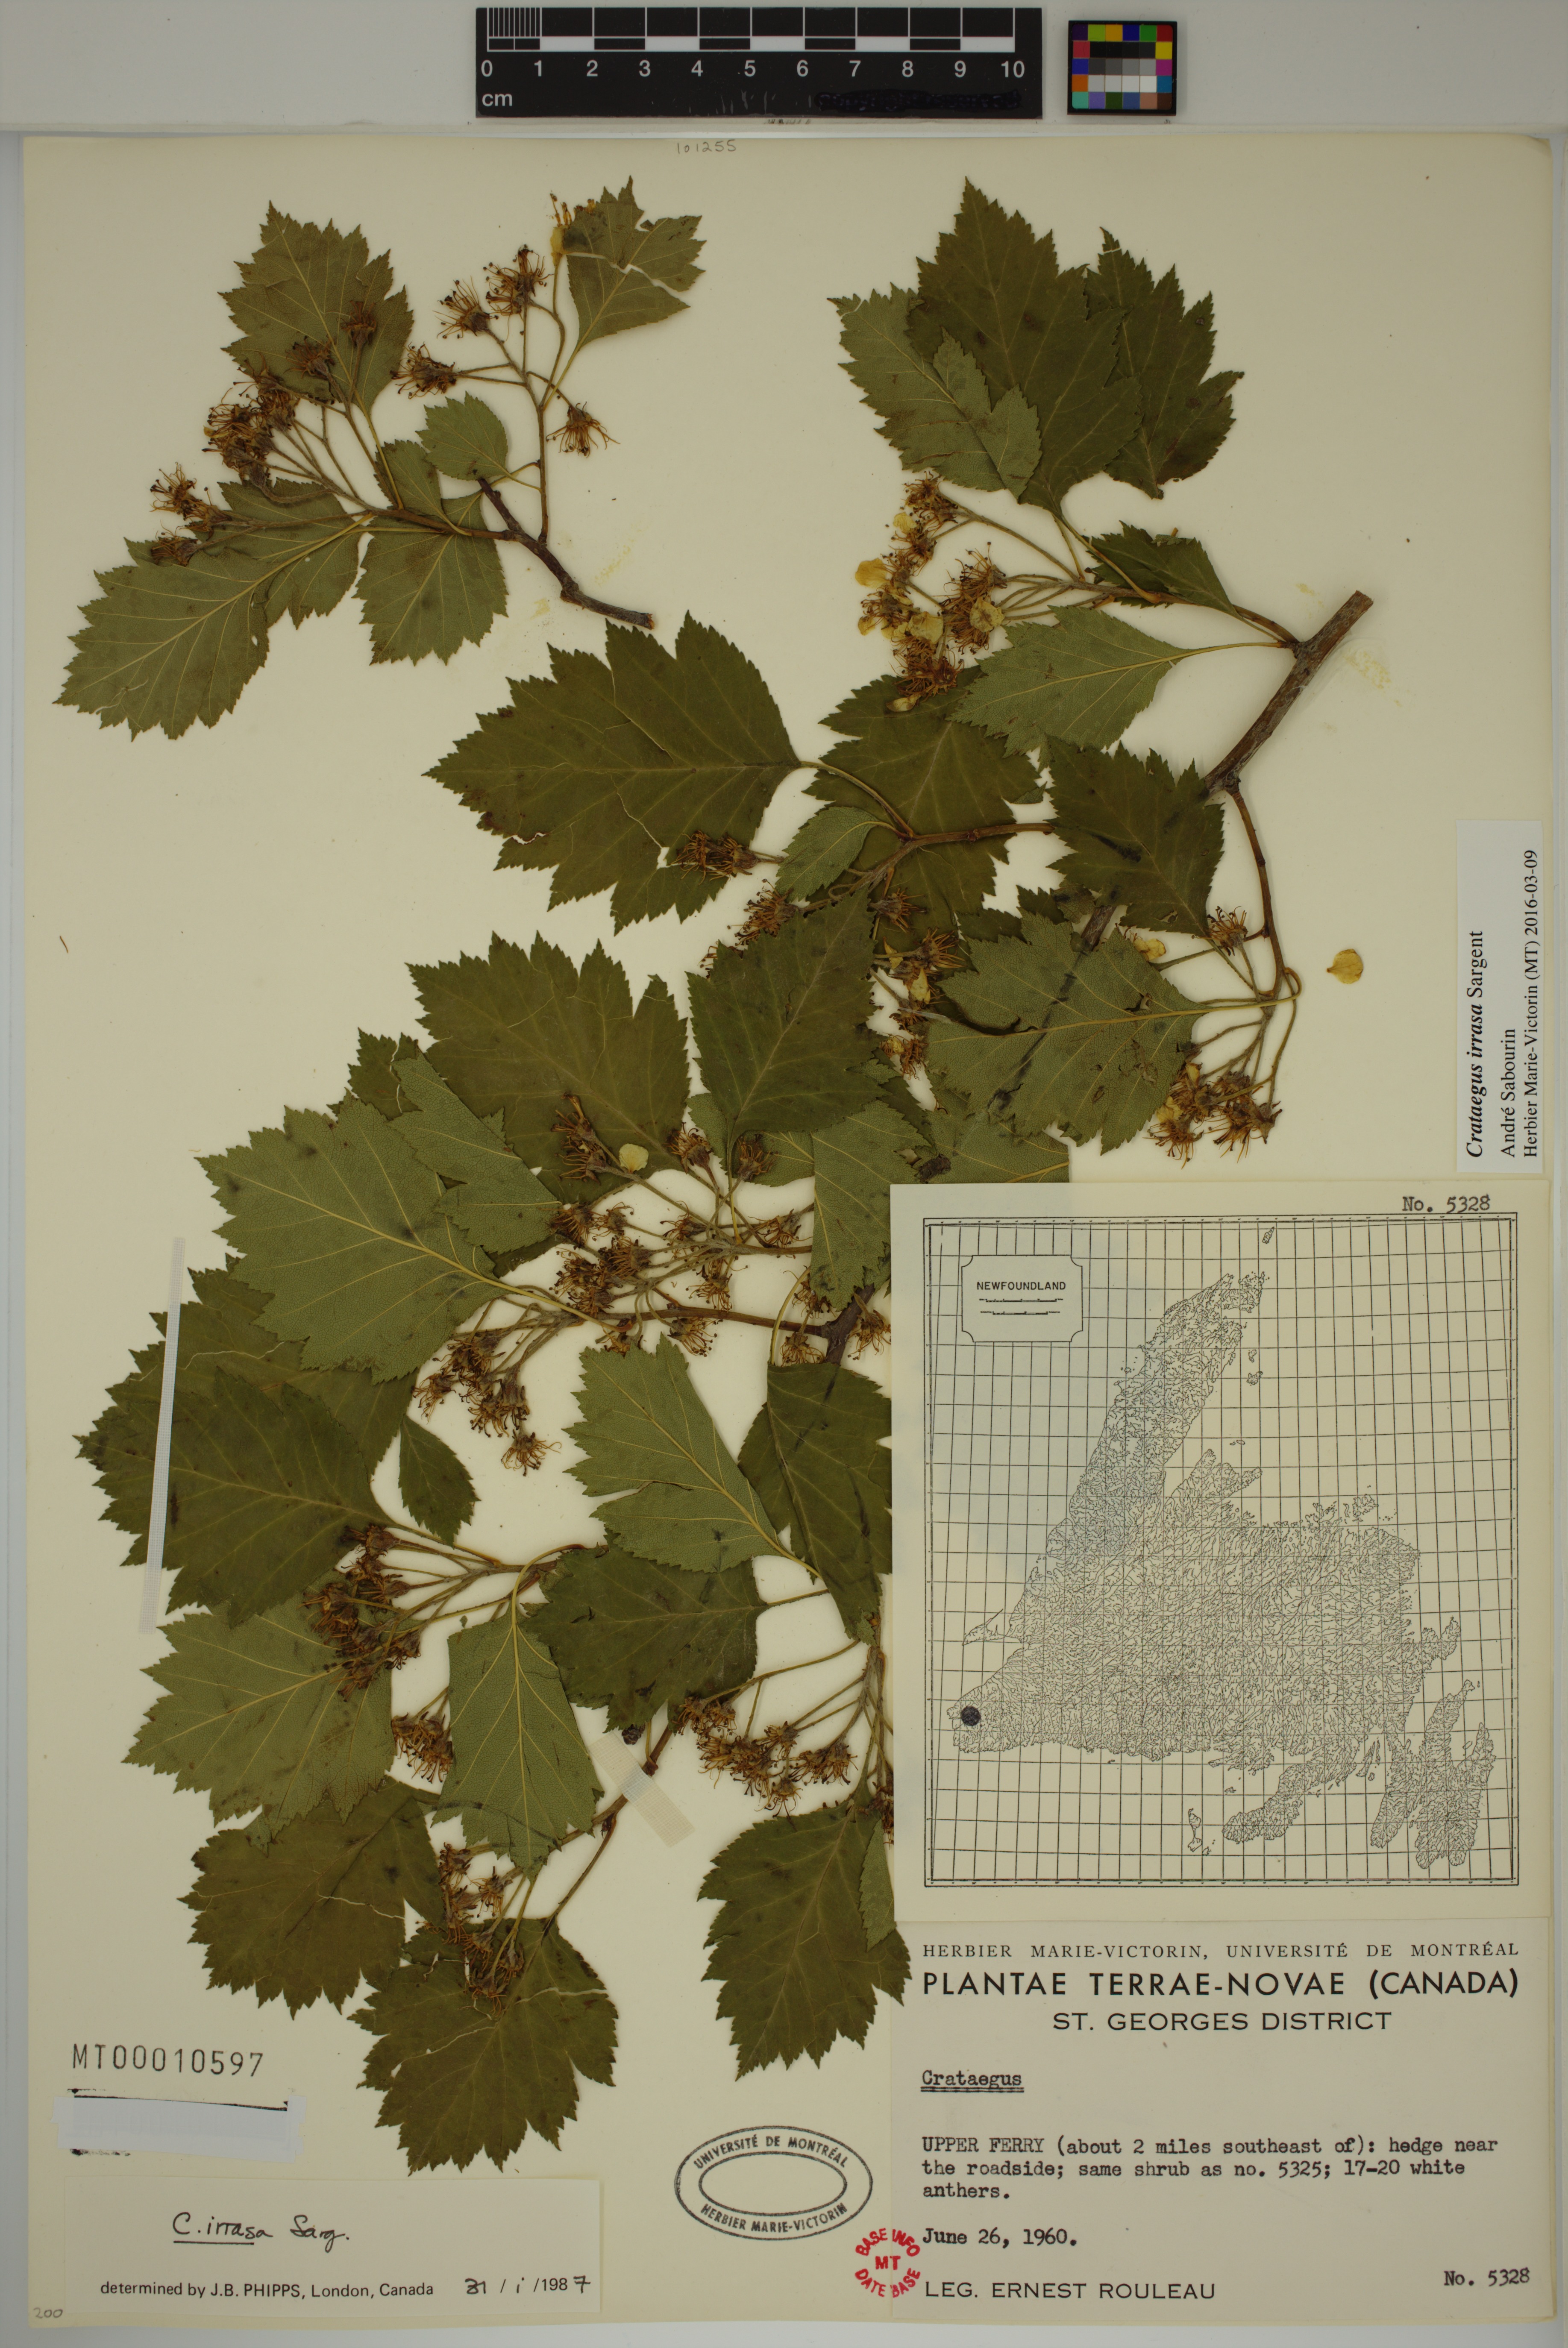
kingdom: Plantae
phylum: Tracheophyta
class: Magnoliopsida
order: Rosales
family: Rosaceae
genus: Crataegus
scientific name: Crataegus irrasa
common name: Unshorn hawthorn
